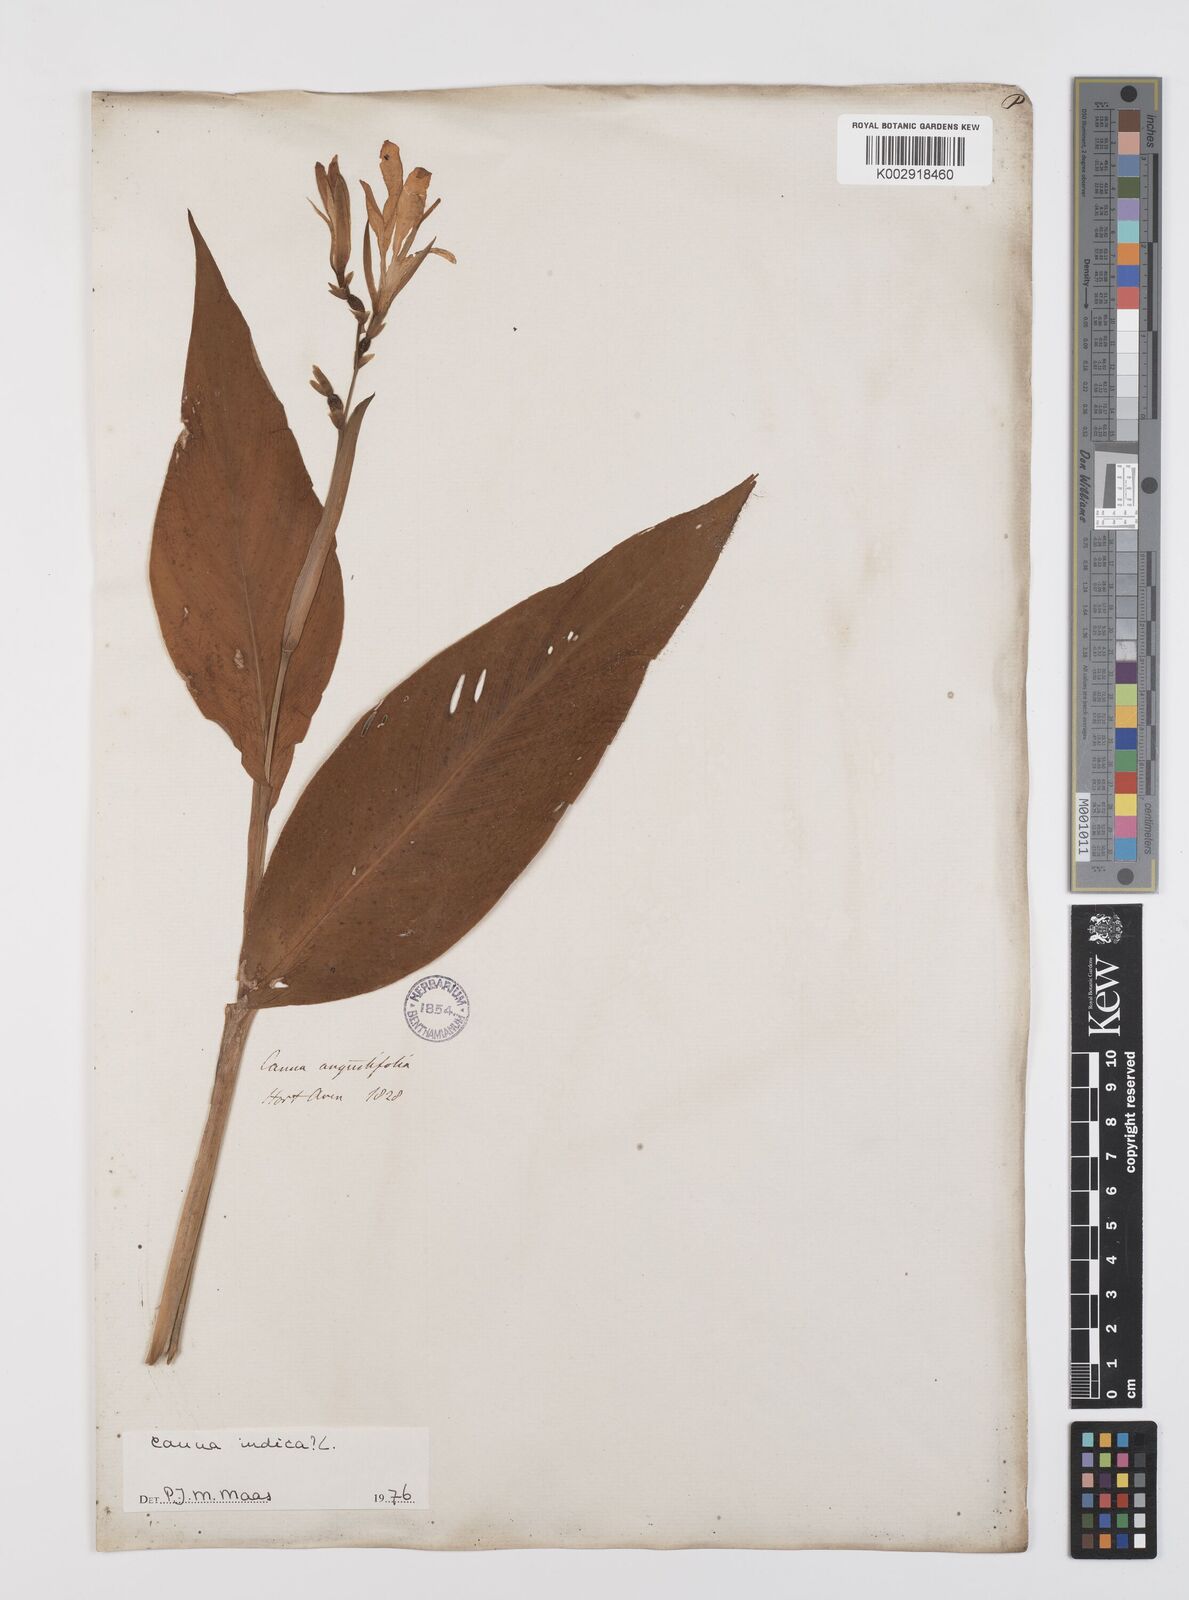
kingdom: Plantae
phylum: Tracheophyta
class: Liliopsida
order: Zingiberales
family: Cannaceae
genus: Canna
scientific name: Canna indica
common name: Indian shot
